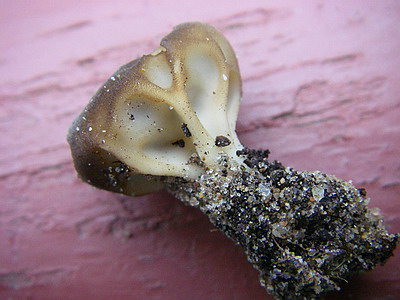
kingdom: Fungi
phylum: Ascomycota
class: Pezizomycetes
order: Pezizales
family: Helvellaceae
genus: Helvella
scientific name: Helvella acetabulum
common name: pokal-foldhat
